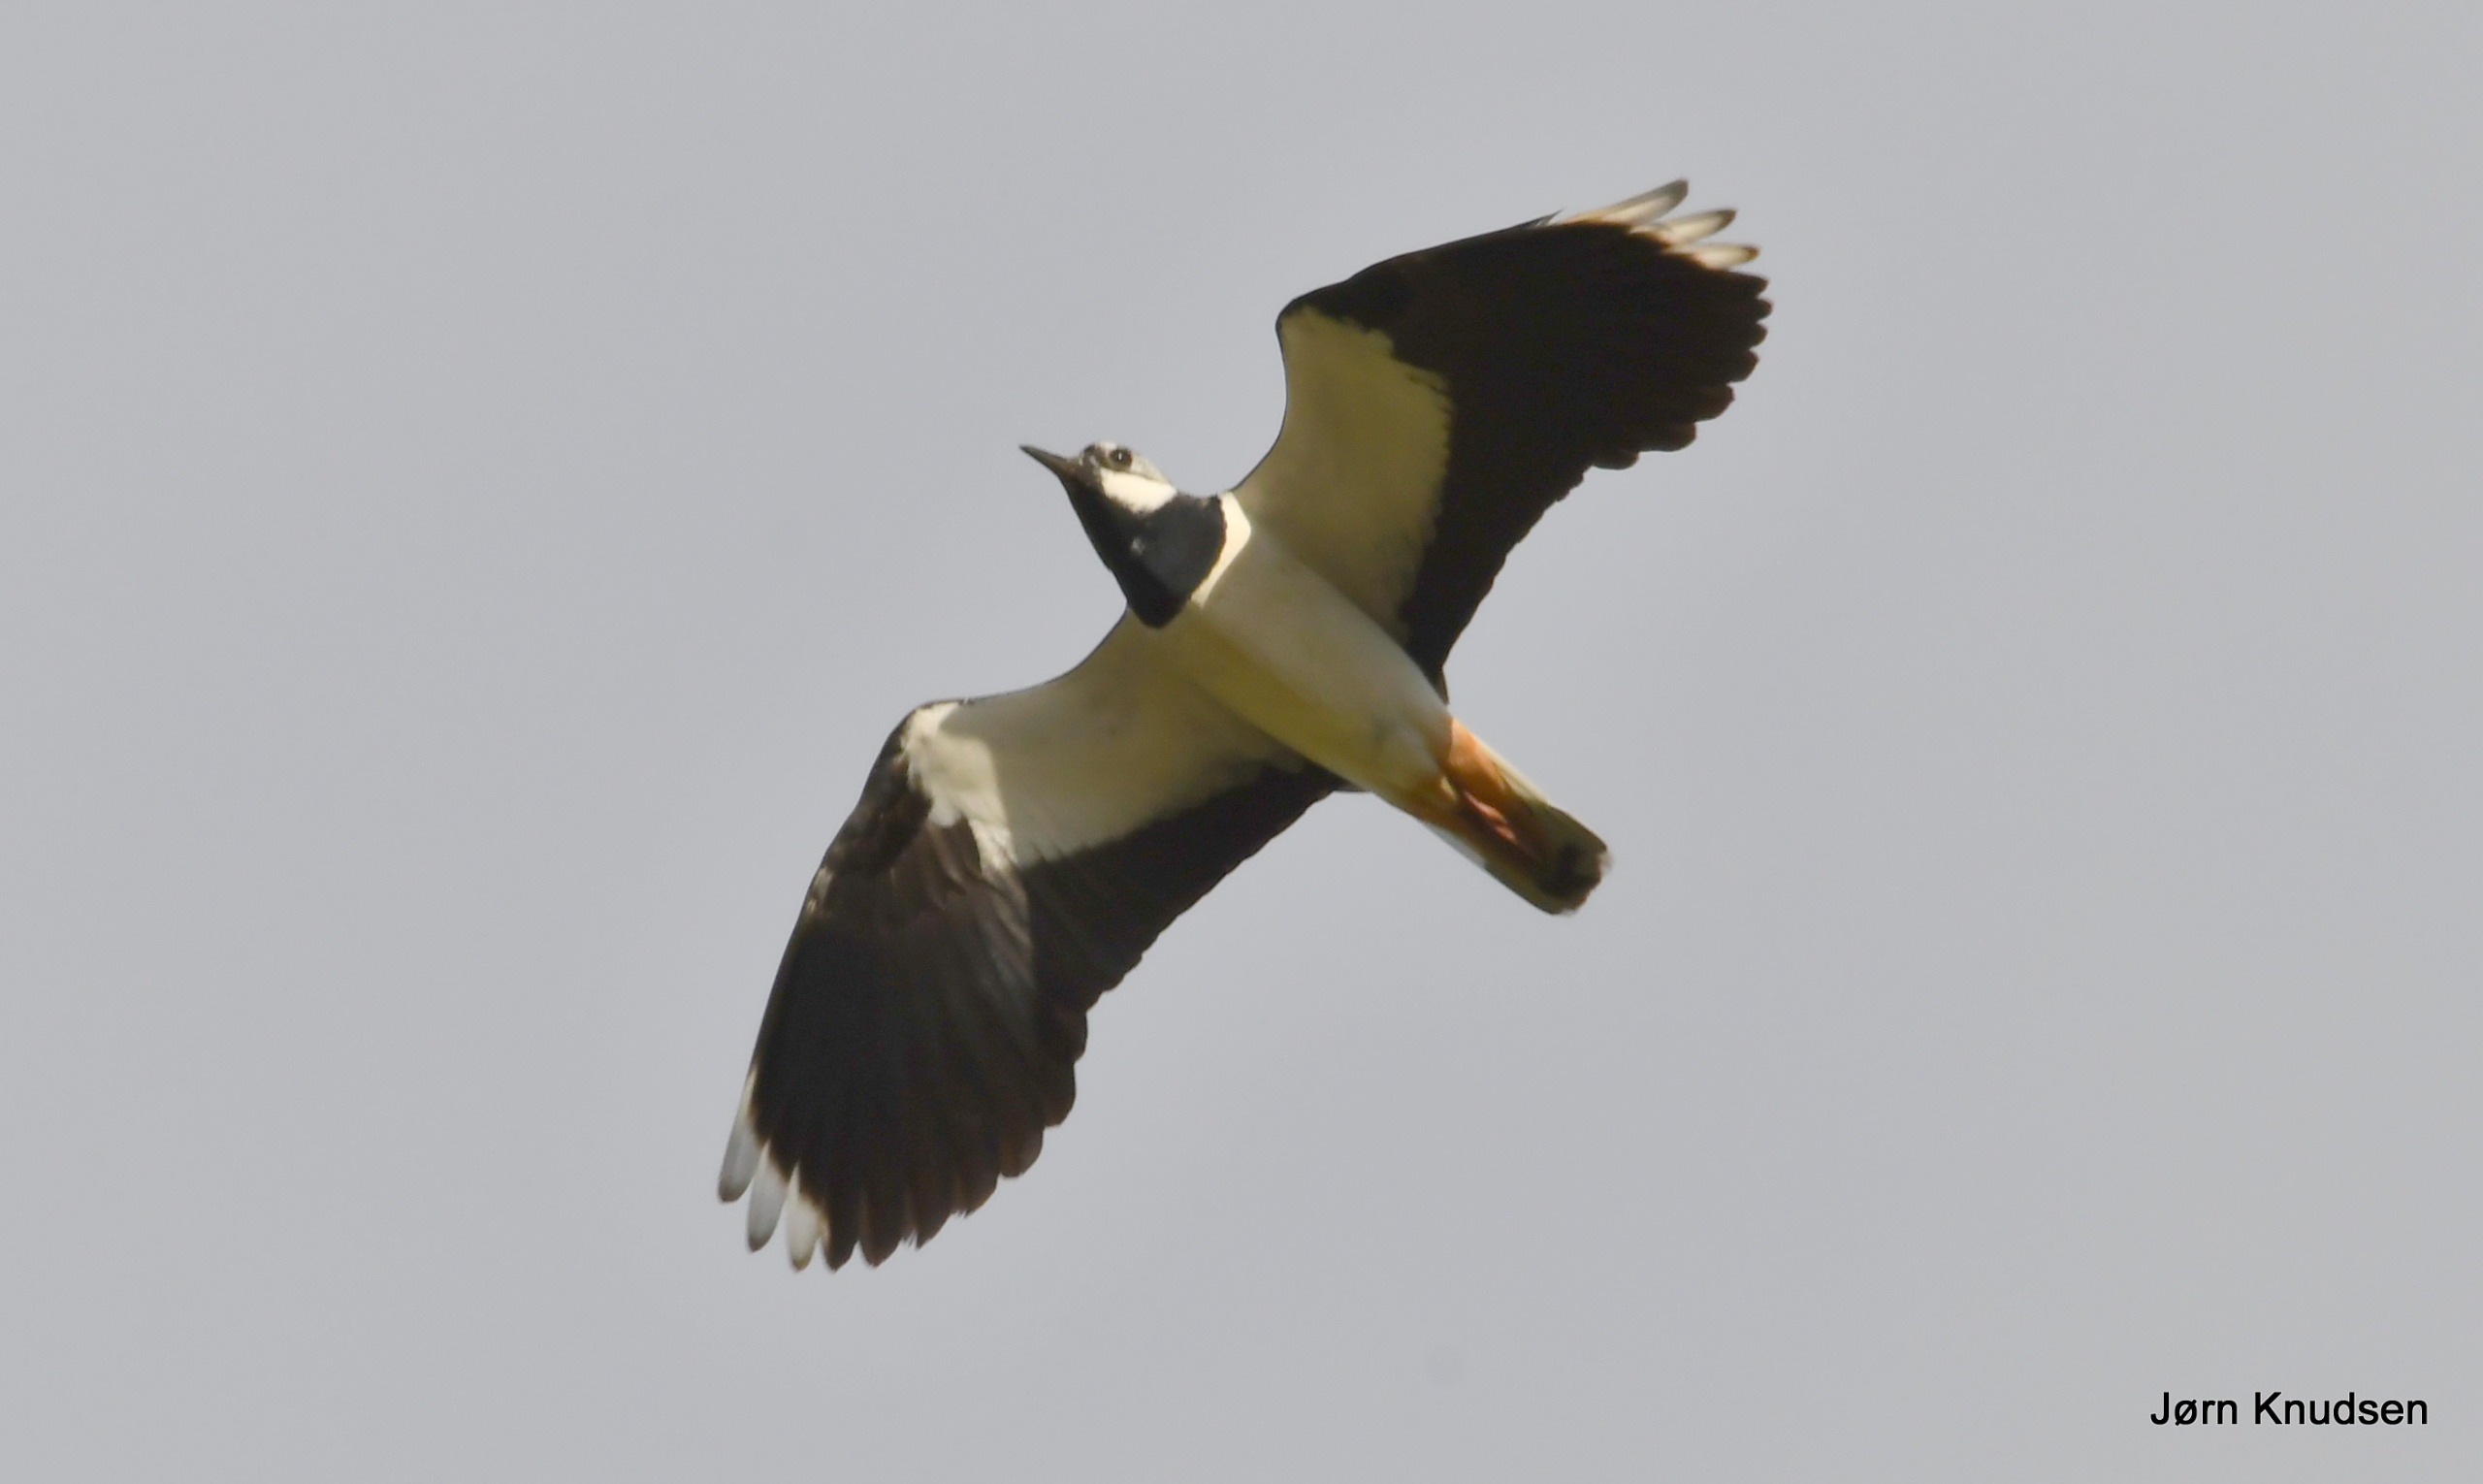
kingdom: Animalia
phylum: Chordata
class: Aves
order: Charadriiformes
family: Charadriidae
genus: Vanellus
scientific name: Vanellus vanellus
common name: Vibe
